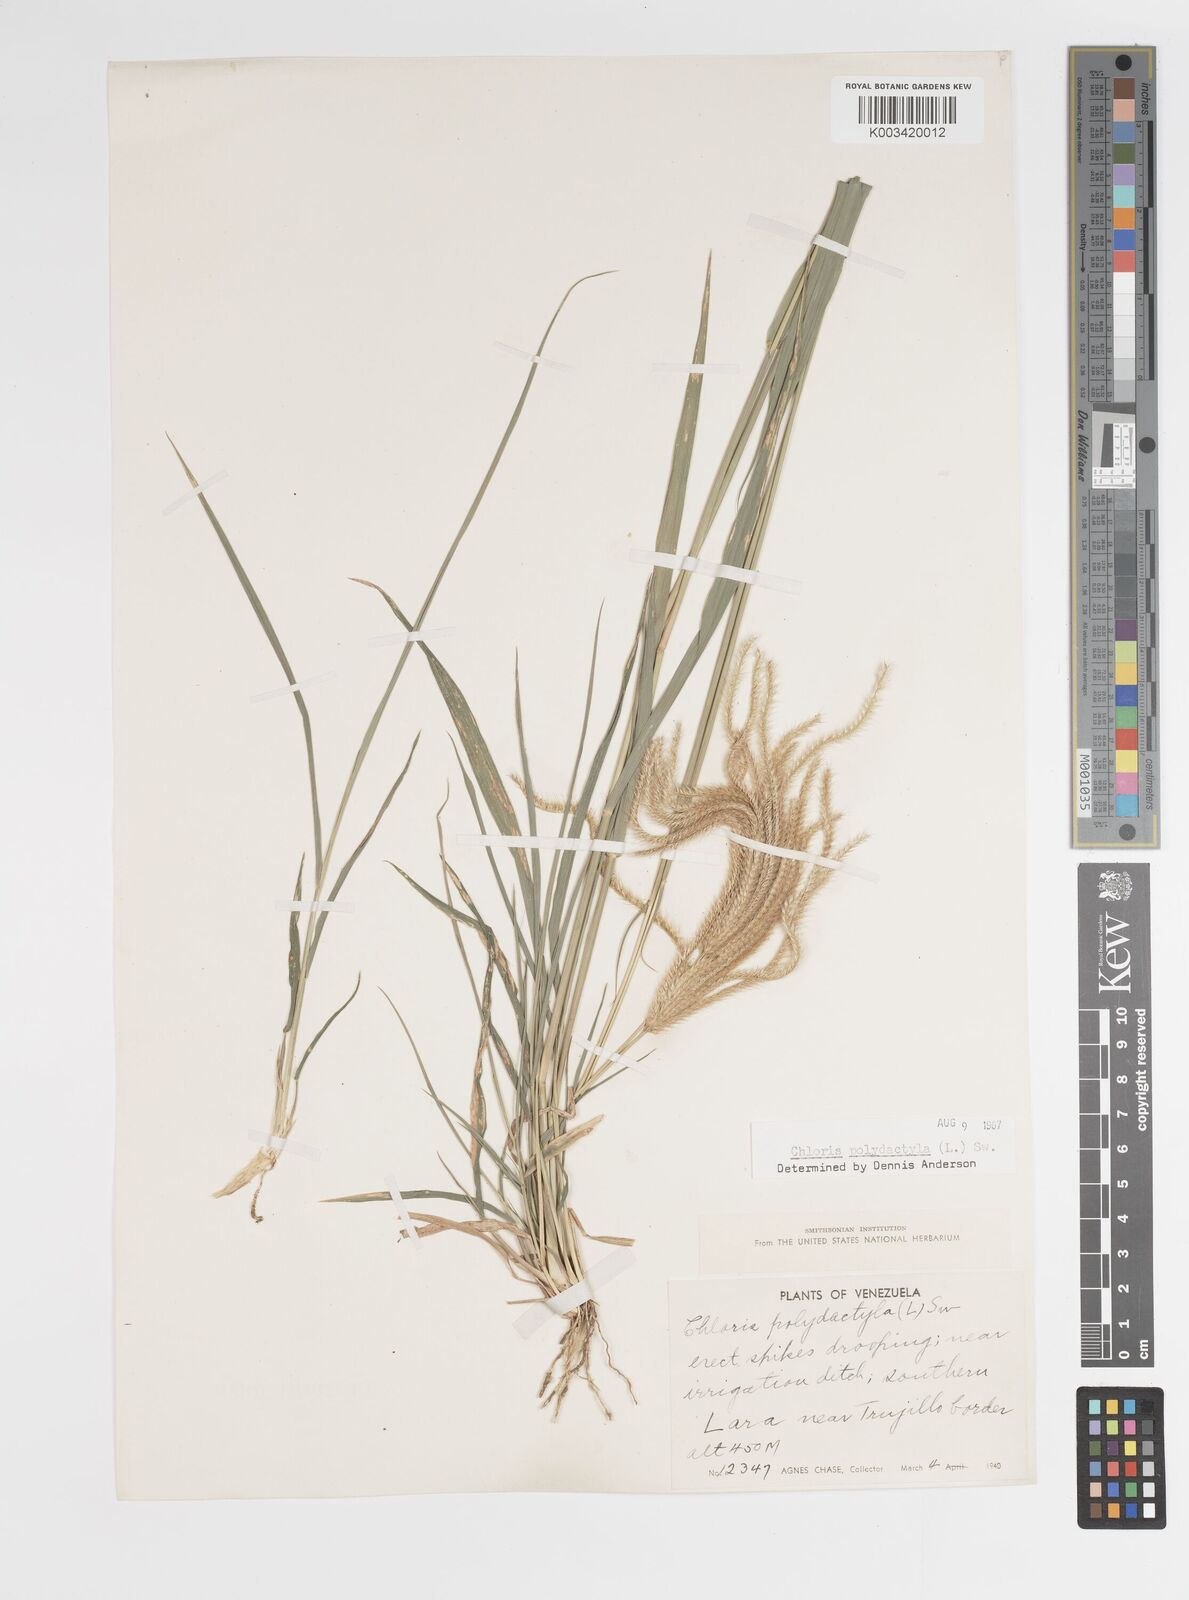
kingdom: Plantae
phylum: Tracheophyta
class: Liliopsida
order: Poales
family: Poaceae
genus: Stapfochloa
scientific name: Stapfochloa elata
